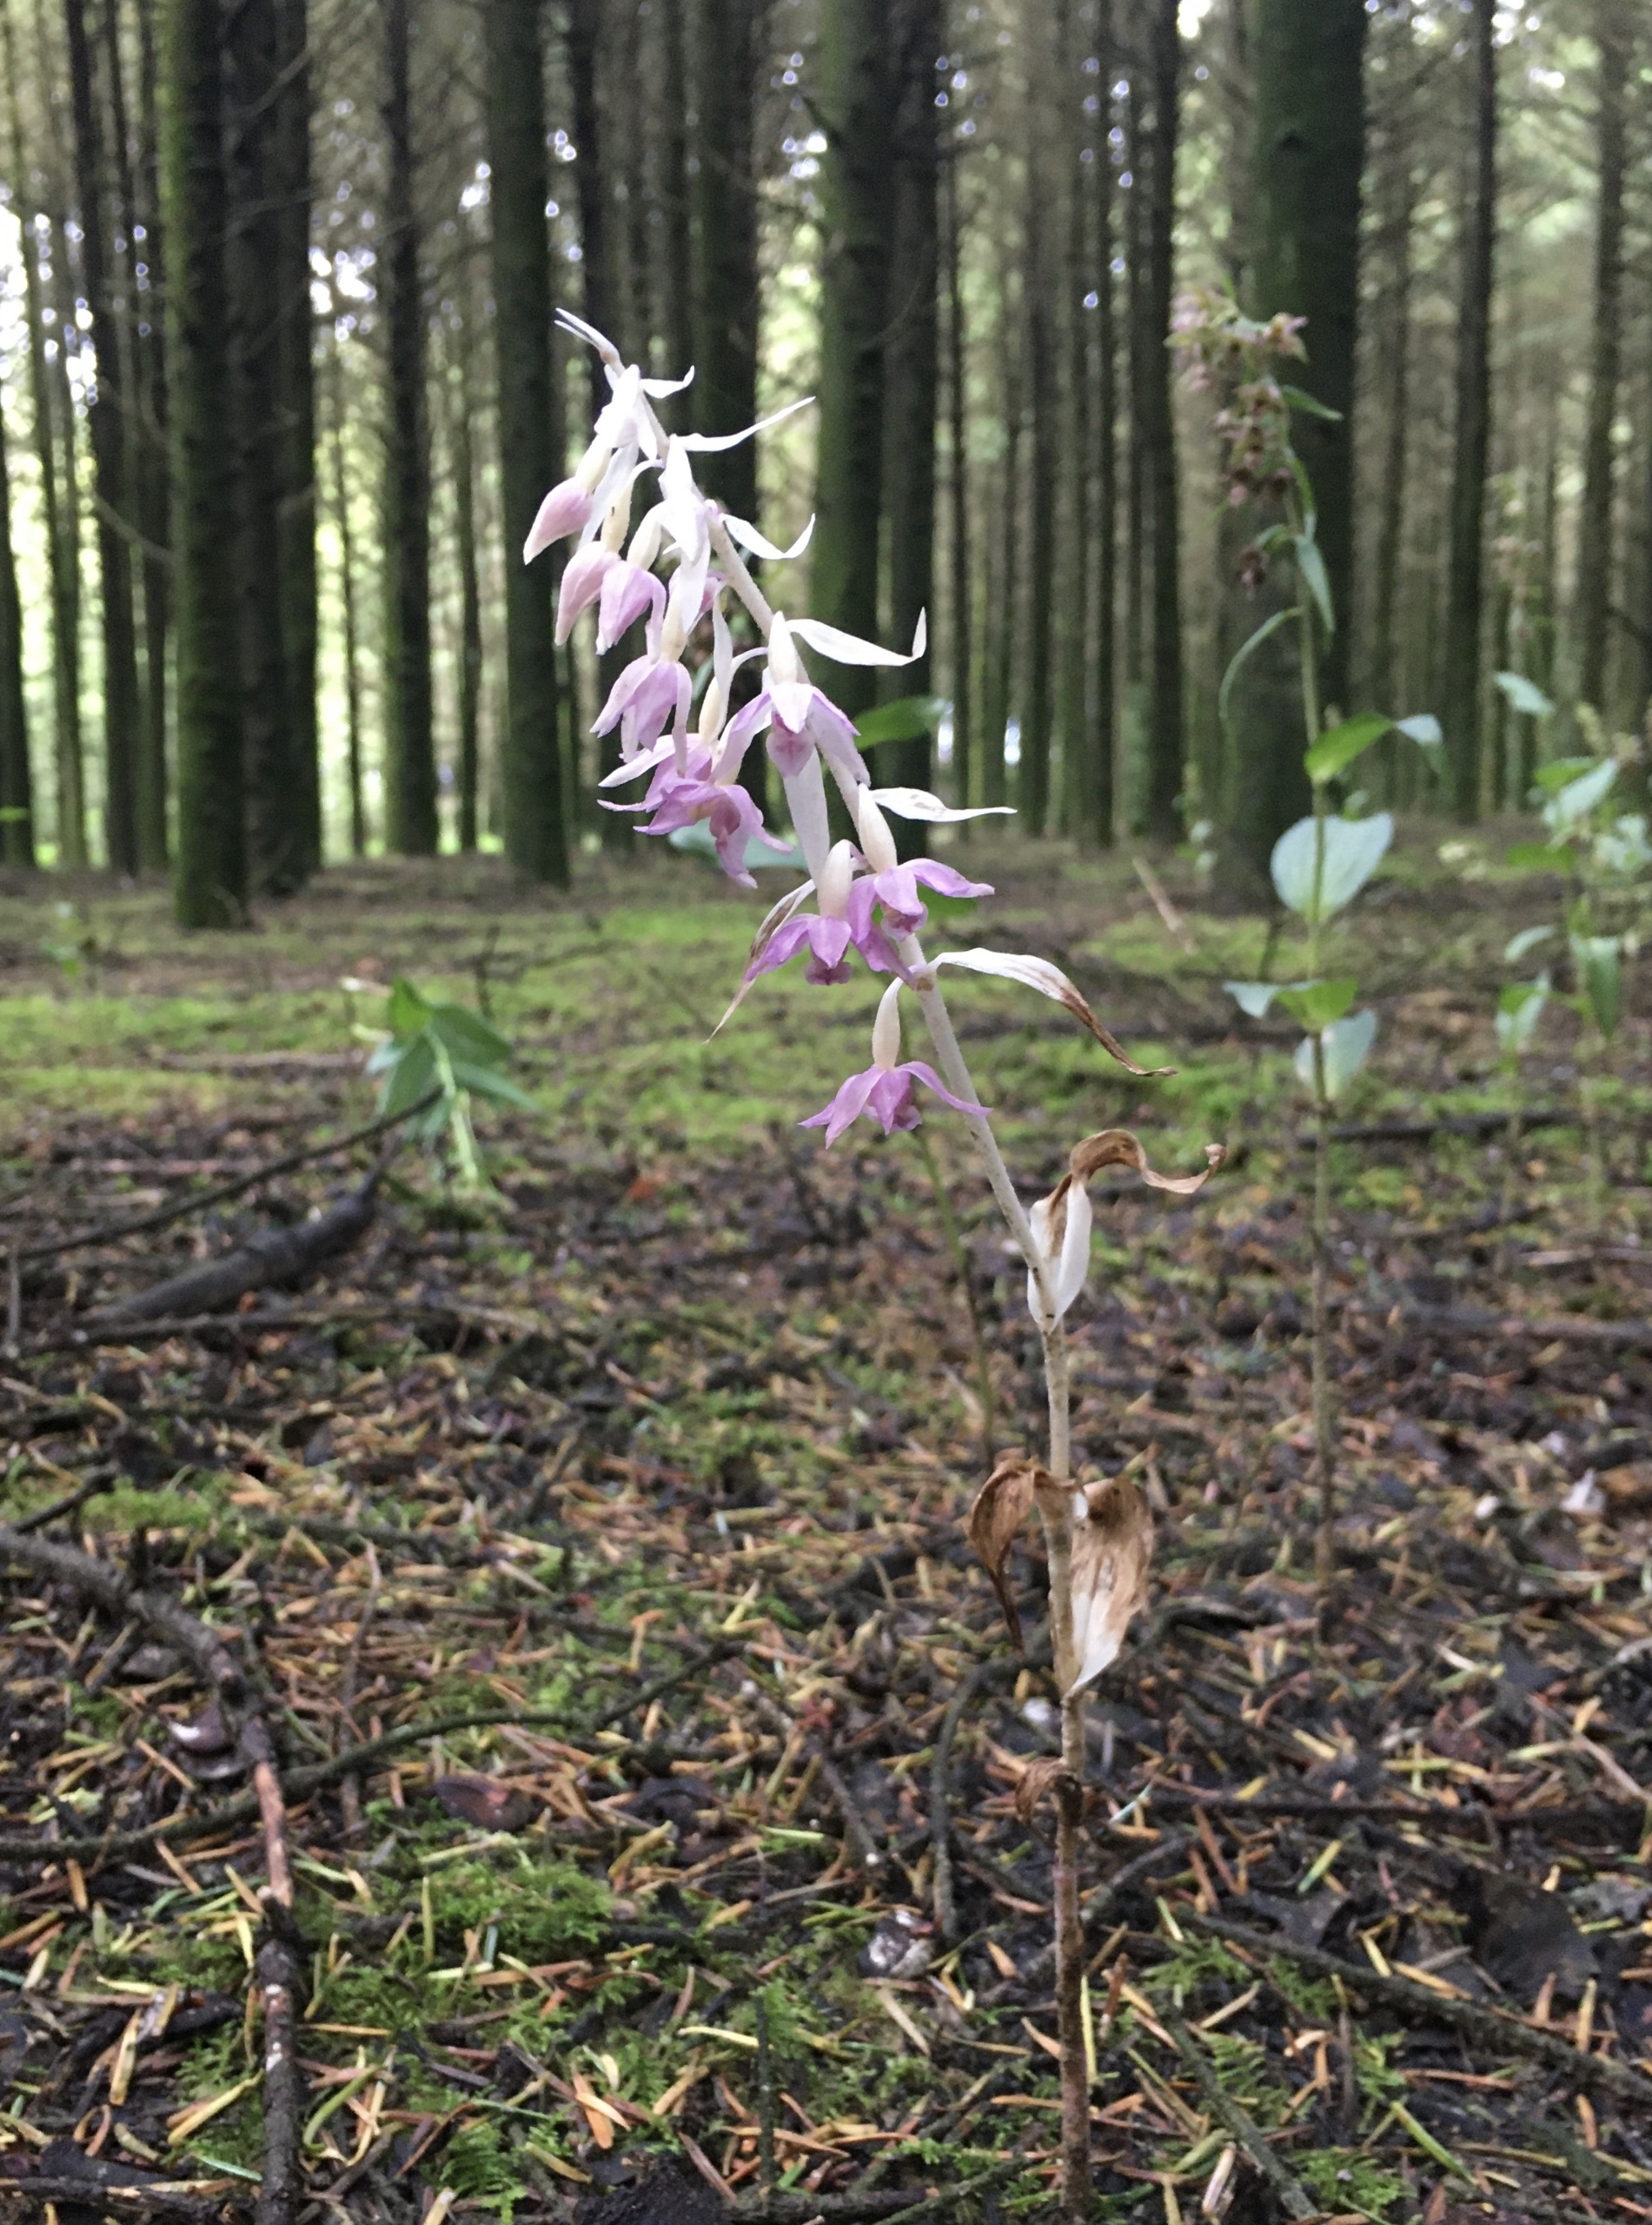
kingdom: Plantae
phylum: Tracheophyta
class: Liliopsida
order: Asparagales
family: Orchidaceae
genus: Epipactis
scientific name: Epipactis helleborine
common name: Skov-hullæbe
